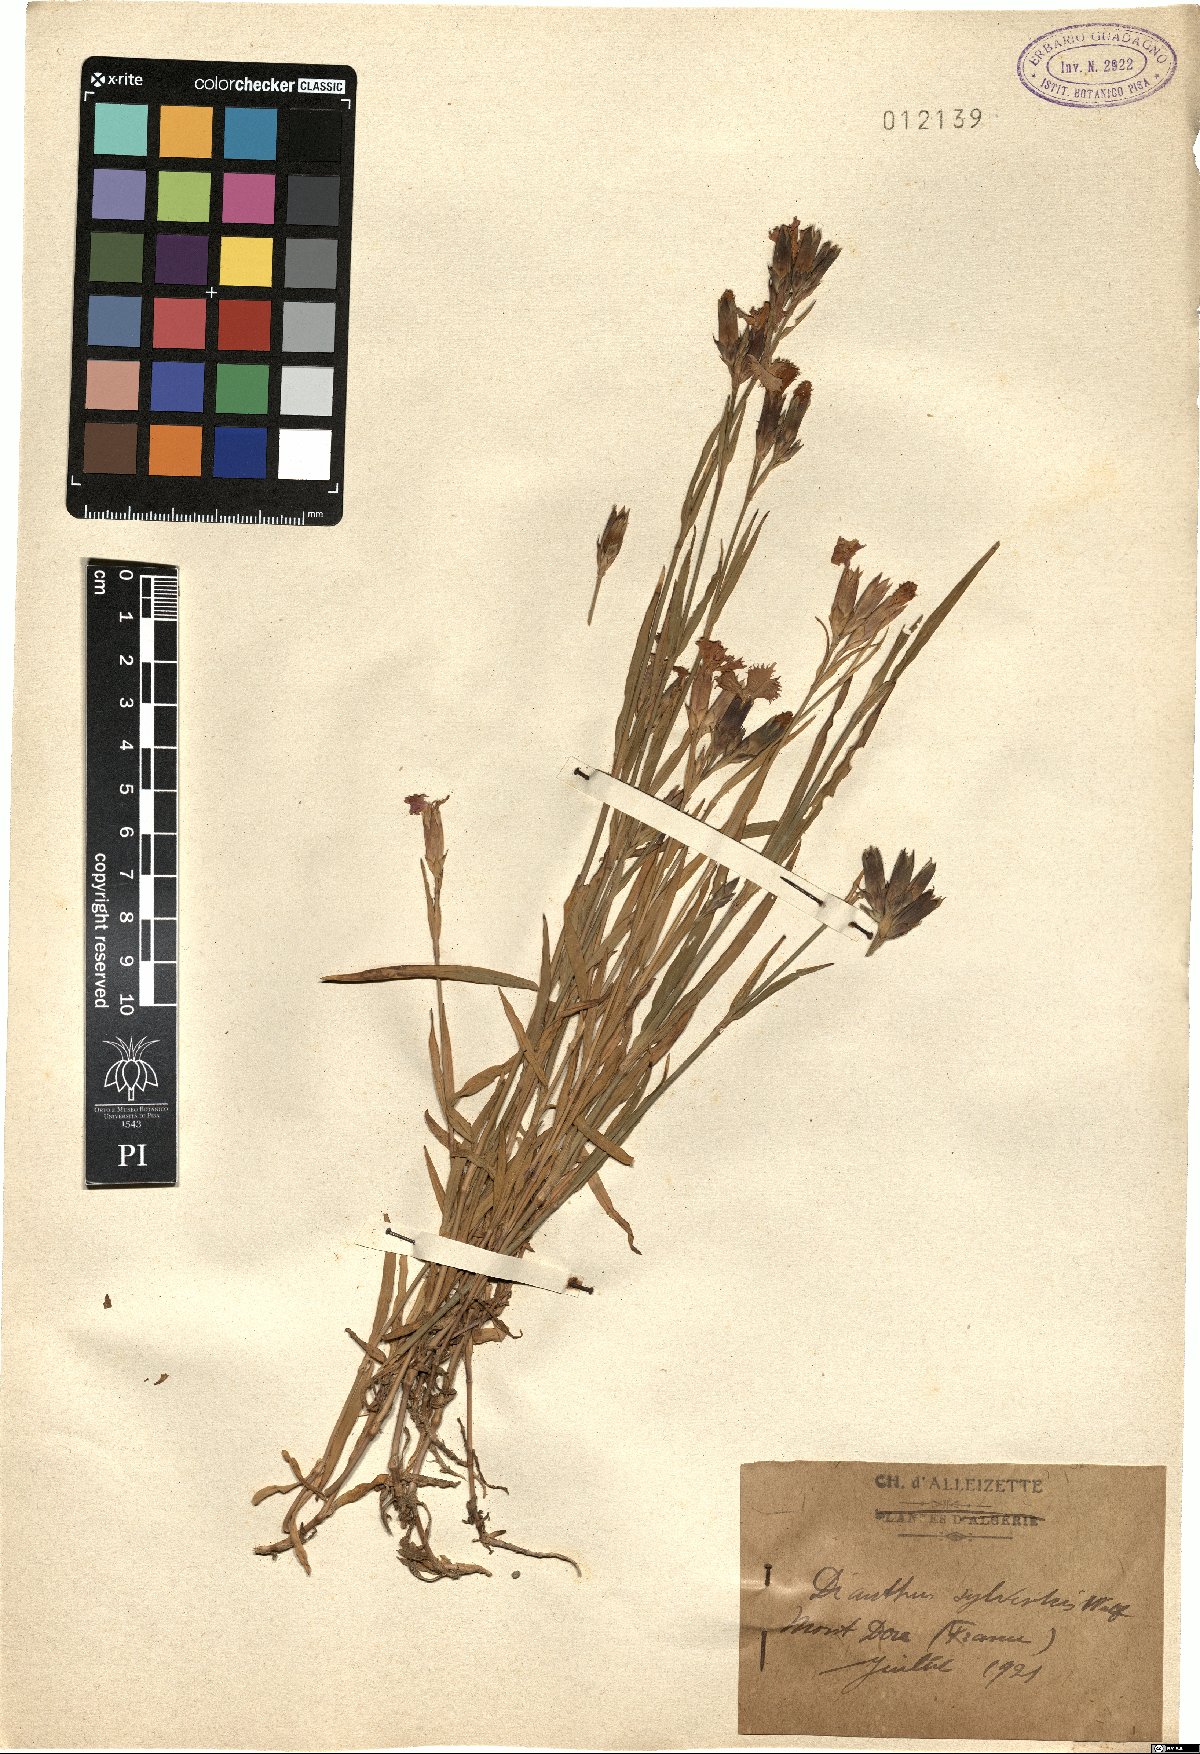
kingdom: Plantae
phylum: Tracheophyta
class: Magnoliopsida
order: Caryophyllales
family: Caryophyllaceae
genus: Dianthus
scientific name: Dianthus sylvestris
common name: Wood pink
